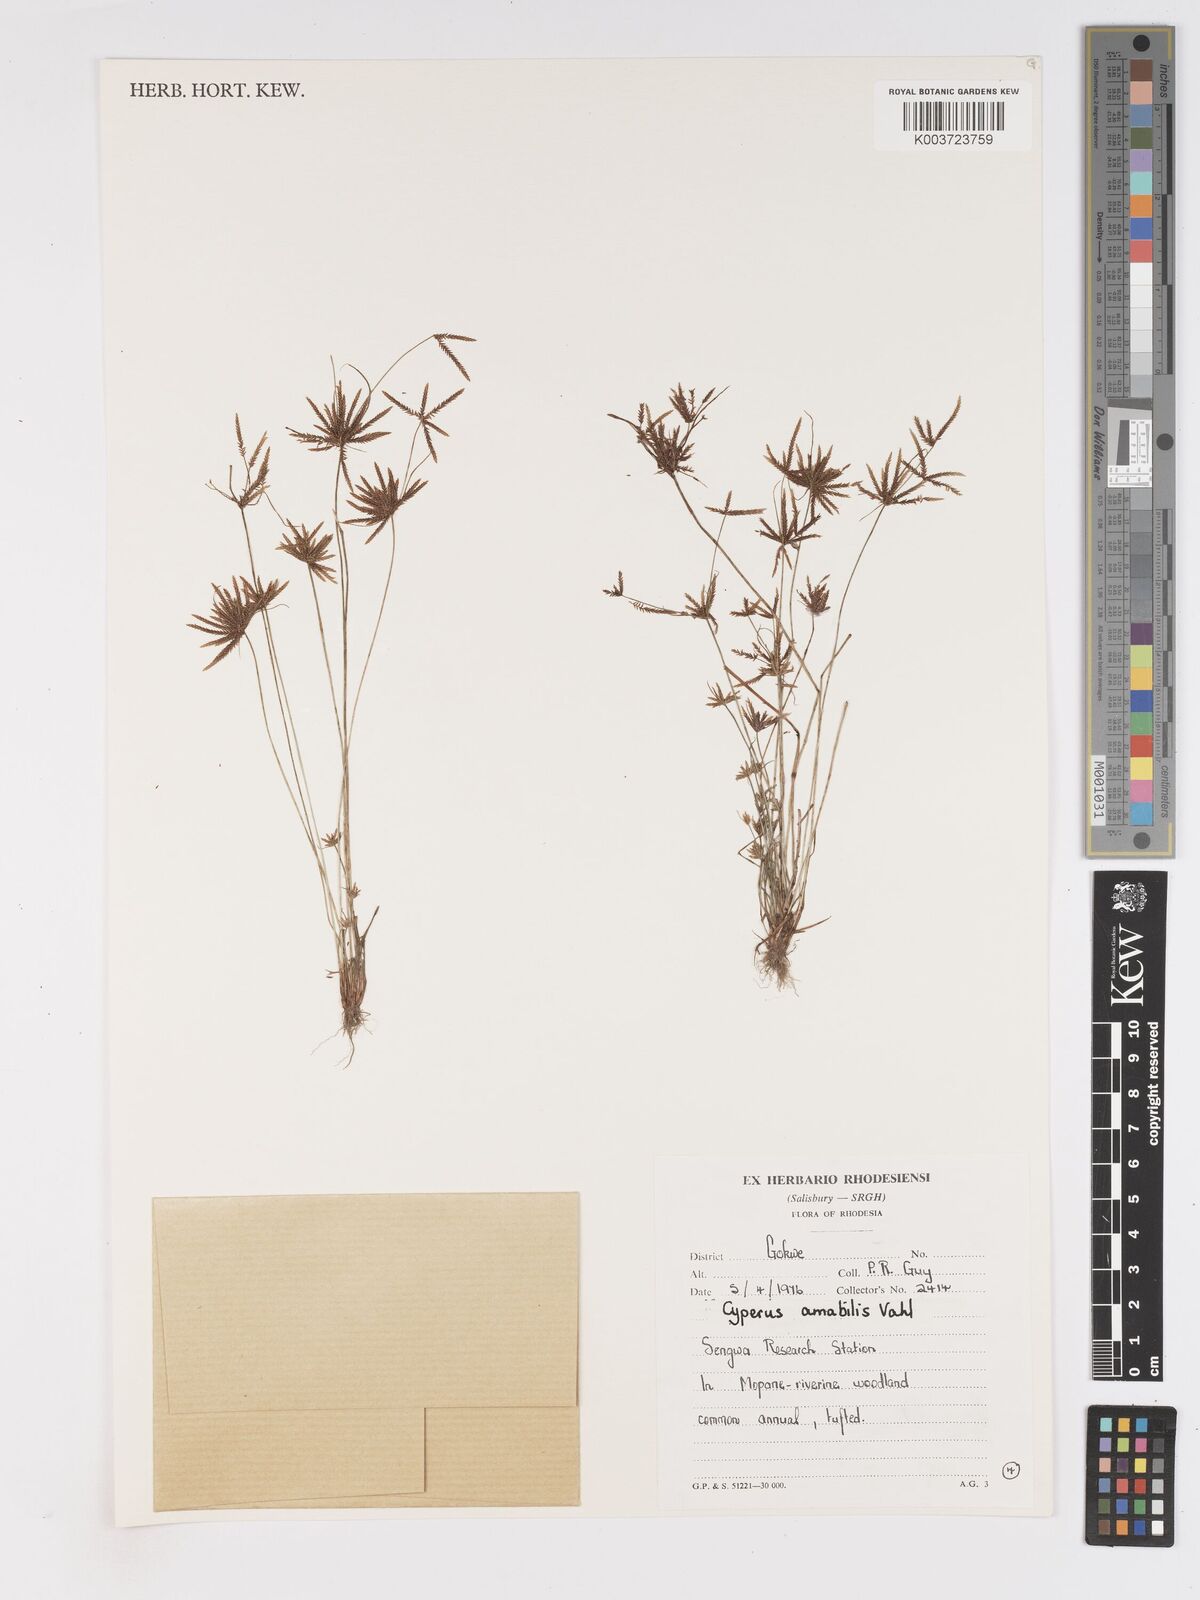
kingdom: Plantae
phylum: Tracheophyta
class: Liliopsida
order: Poales
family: Cyperaceae
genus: Cyperus
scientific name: Cyperus amabilis
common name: Foothill flat sedge
